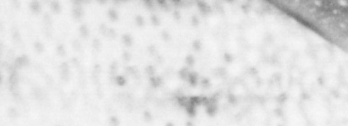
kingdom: Animalia
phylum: Chordata
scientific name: Chordata
